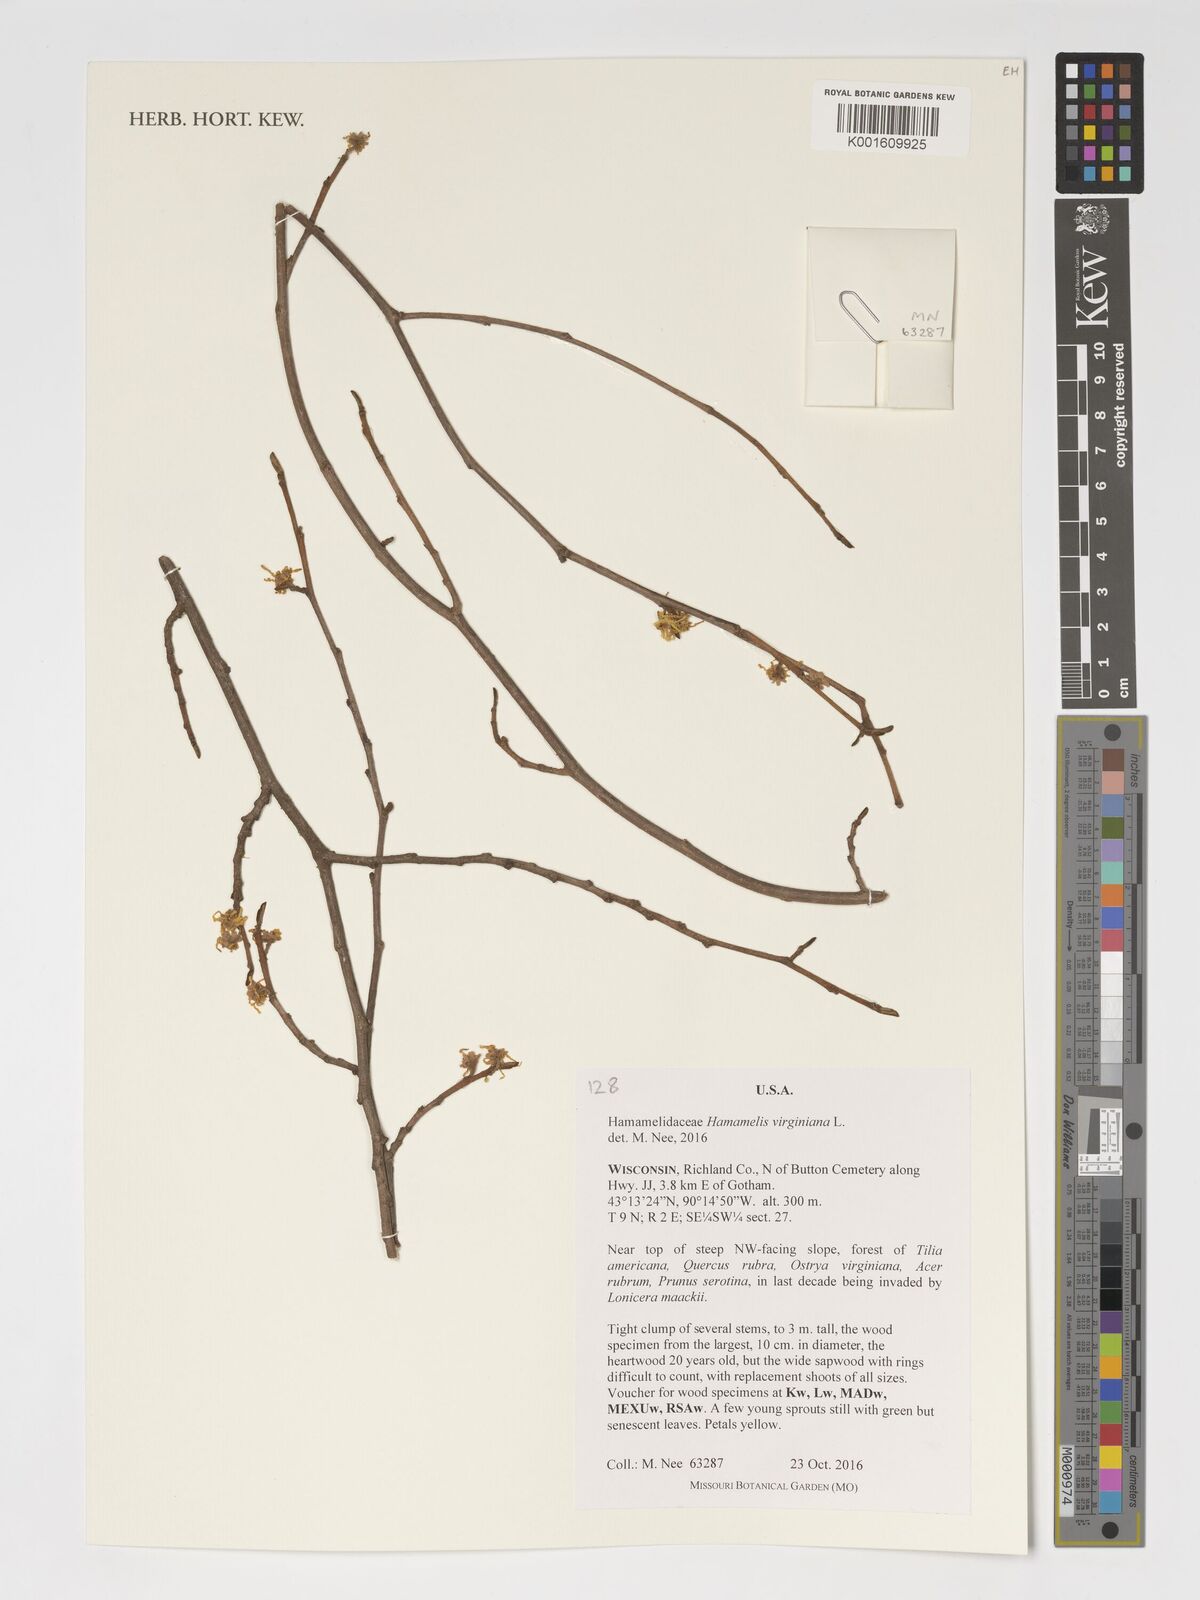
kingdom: Plantae
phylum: Tracheophyta
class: Magnoliopsida
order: Saxifragales
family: Hamamelidaceae
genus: Hamamelis
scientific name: Hamamelis virginiana
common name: Witch-hazel
